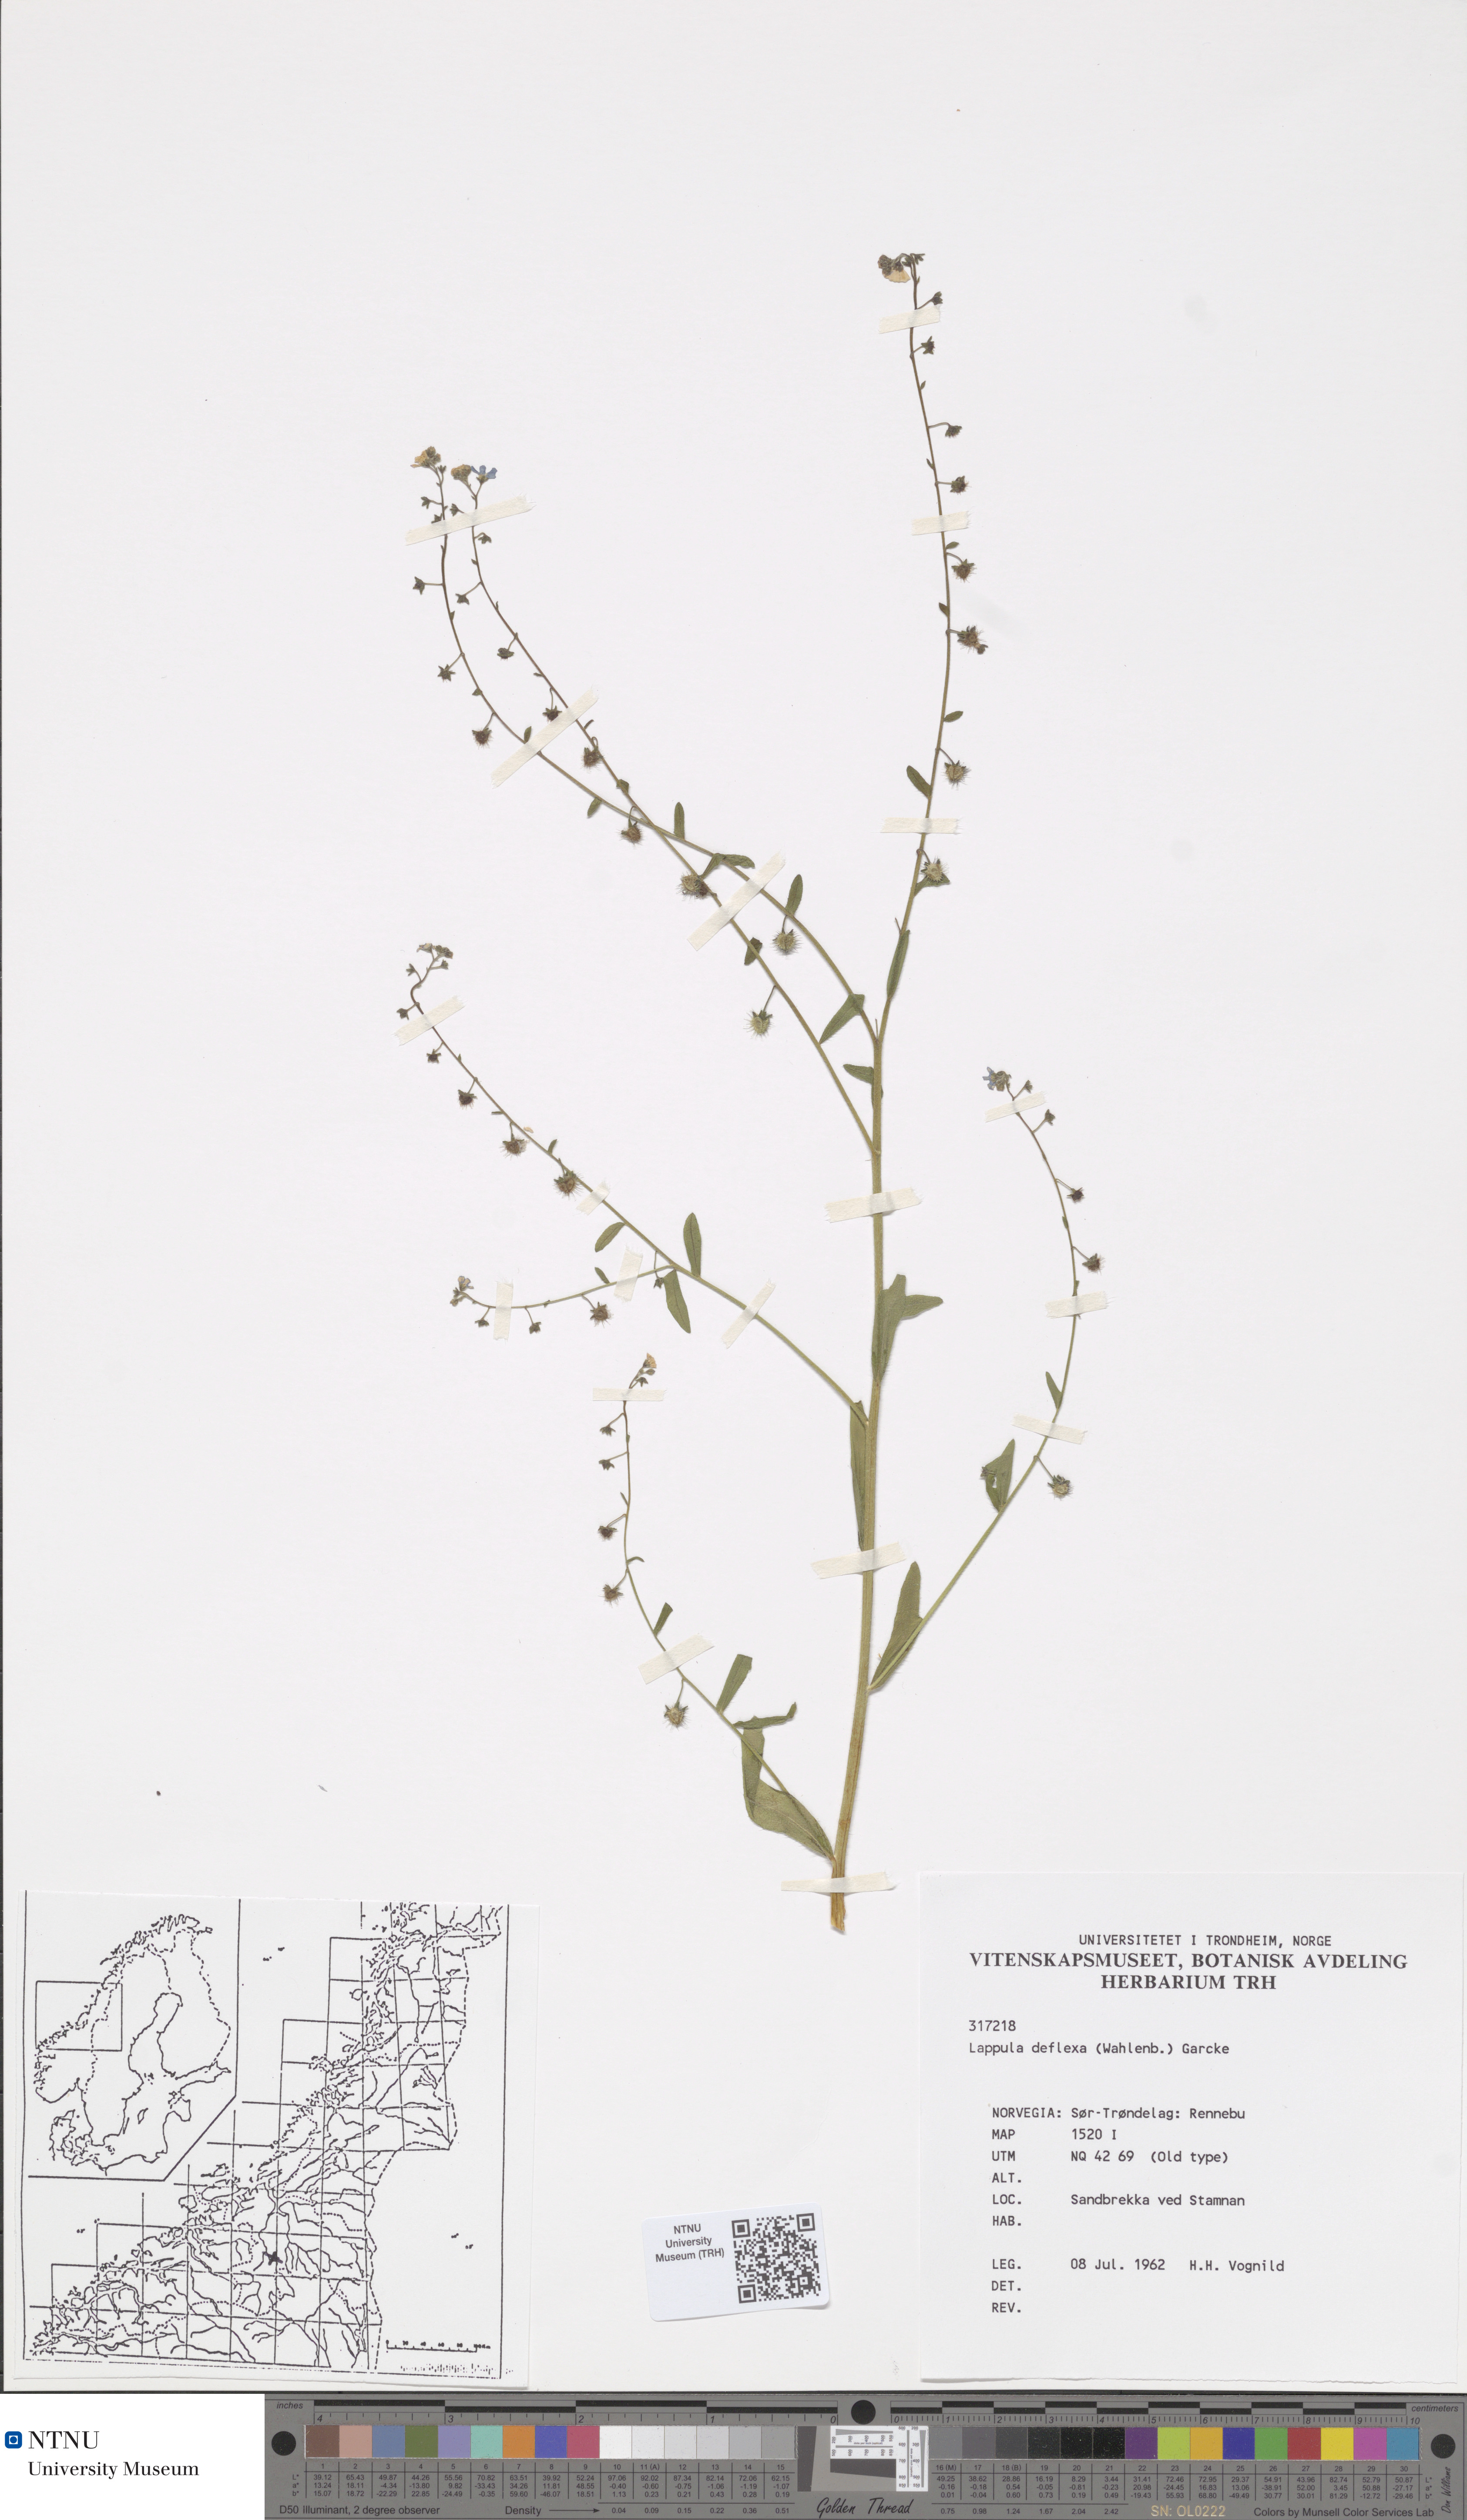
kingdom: Plantae
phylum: Tracheophyta
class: Magnoliopsida
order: Boraginales
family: Boraginaceae
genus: Hackelia
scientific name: Hackelia deflexa
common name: Nodding stickseed
